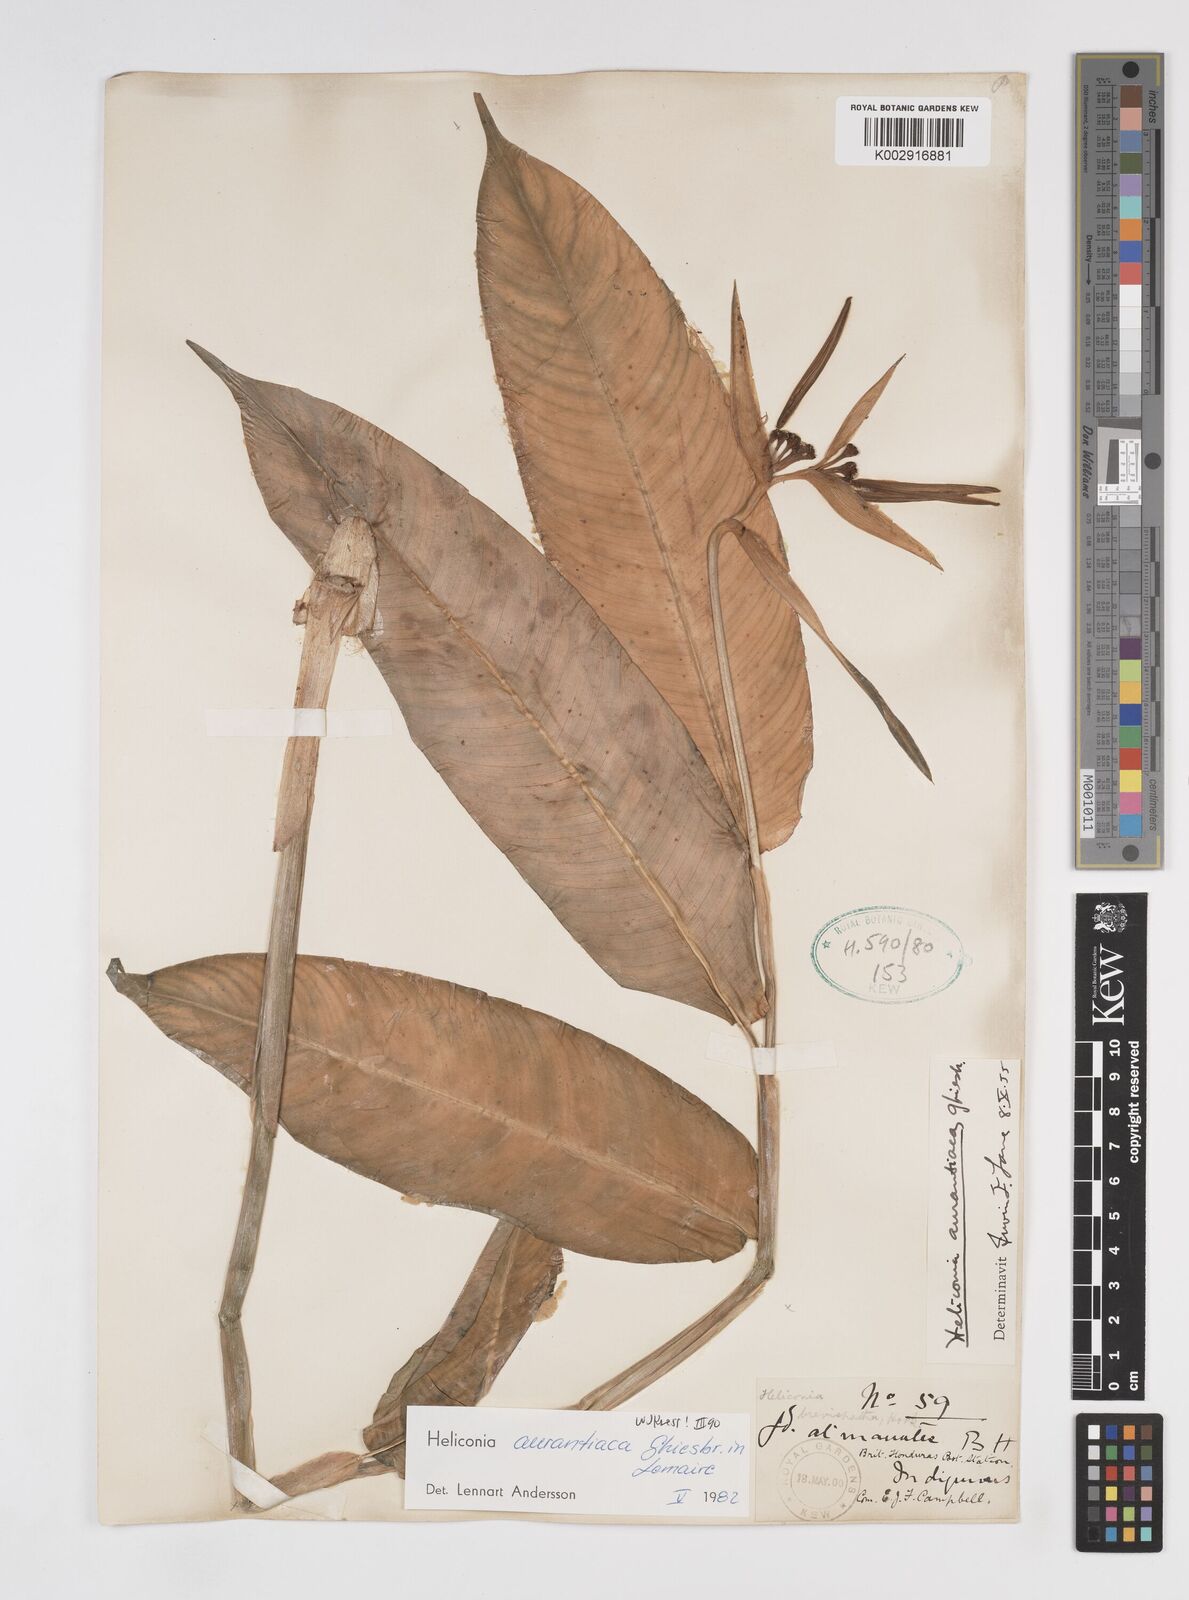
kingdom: Plantae
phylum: Tracheophyta
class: Liliopsida
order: Zingiberales
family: Heliconiaceae
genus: Heliconia
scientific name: Heliconia aurantiaca
